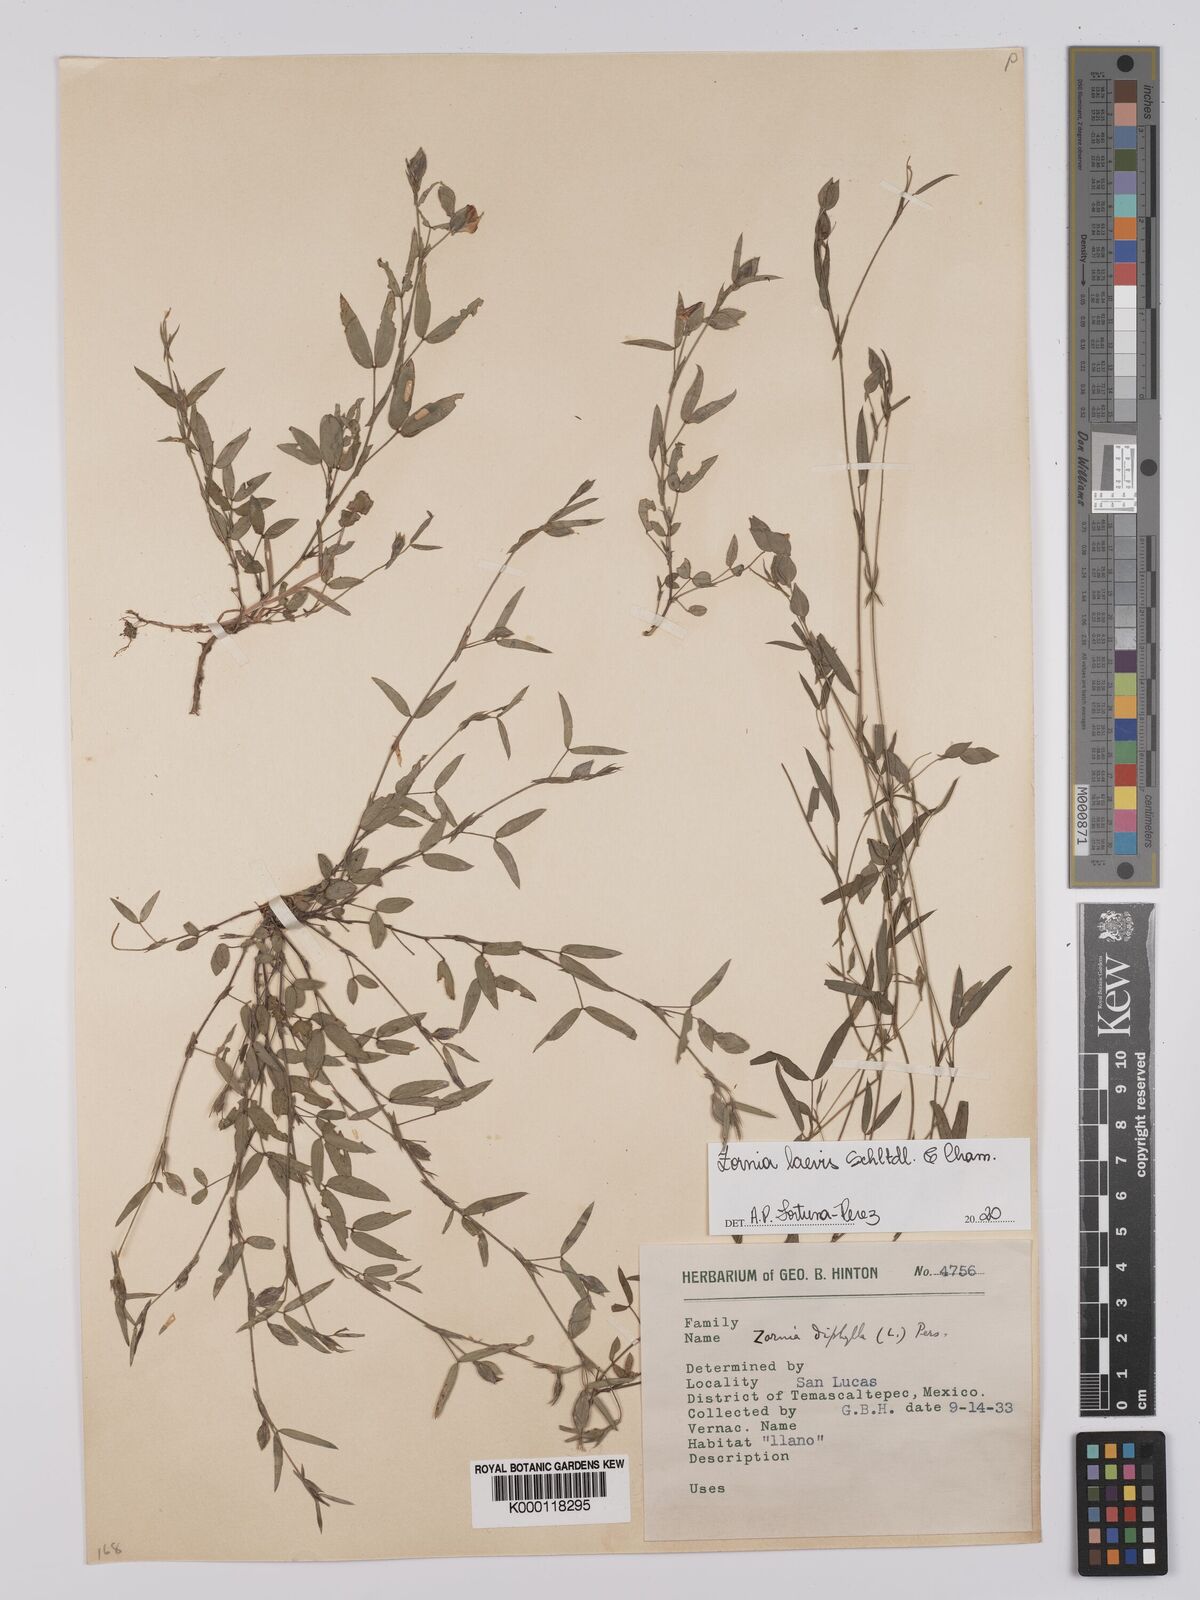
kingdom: Plantae
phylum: Tracheophyta
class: Magnoliopsida
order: Fabales
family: Fabaceae
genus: Zornia
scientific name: Zornia diphylla
